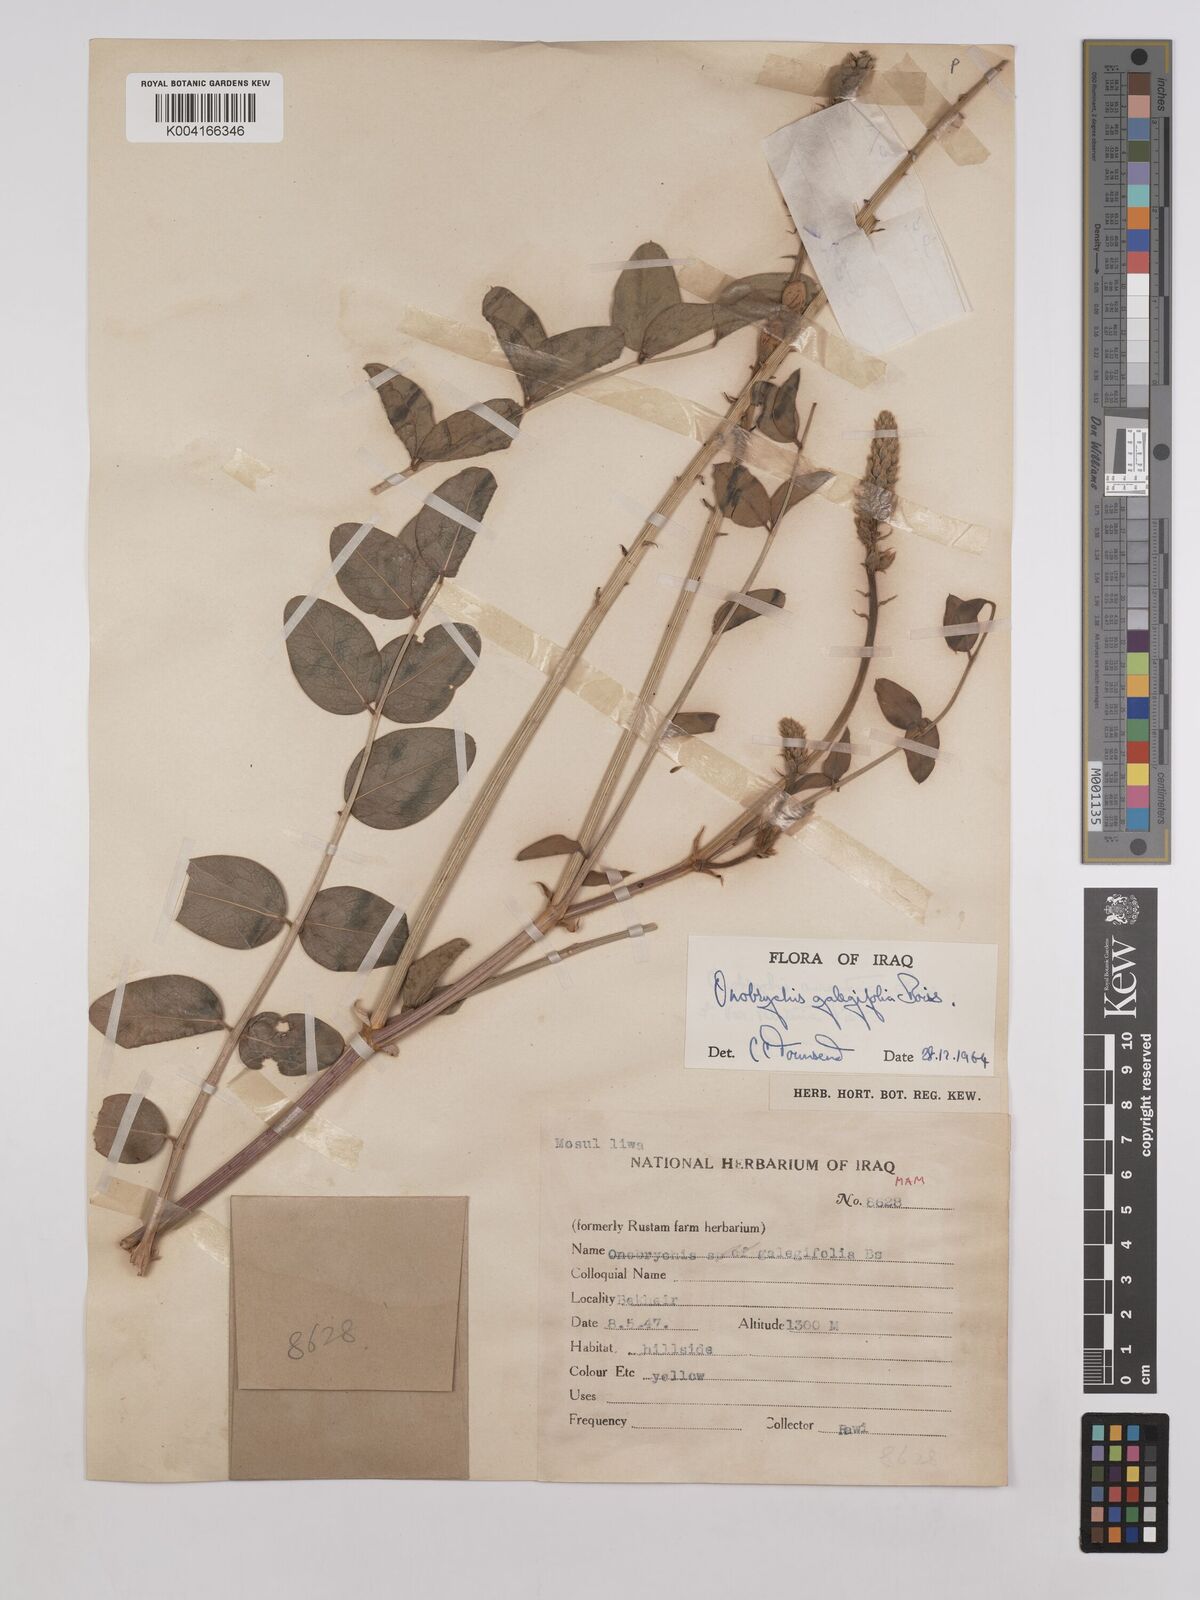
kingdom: Plantae
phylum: Tracheophyta
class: Magnoliopsida
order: Fabales
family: Fabaceae
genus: Onobrychis
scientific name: Onobrychis galegifolia
